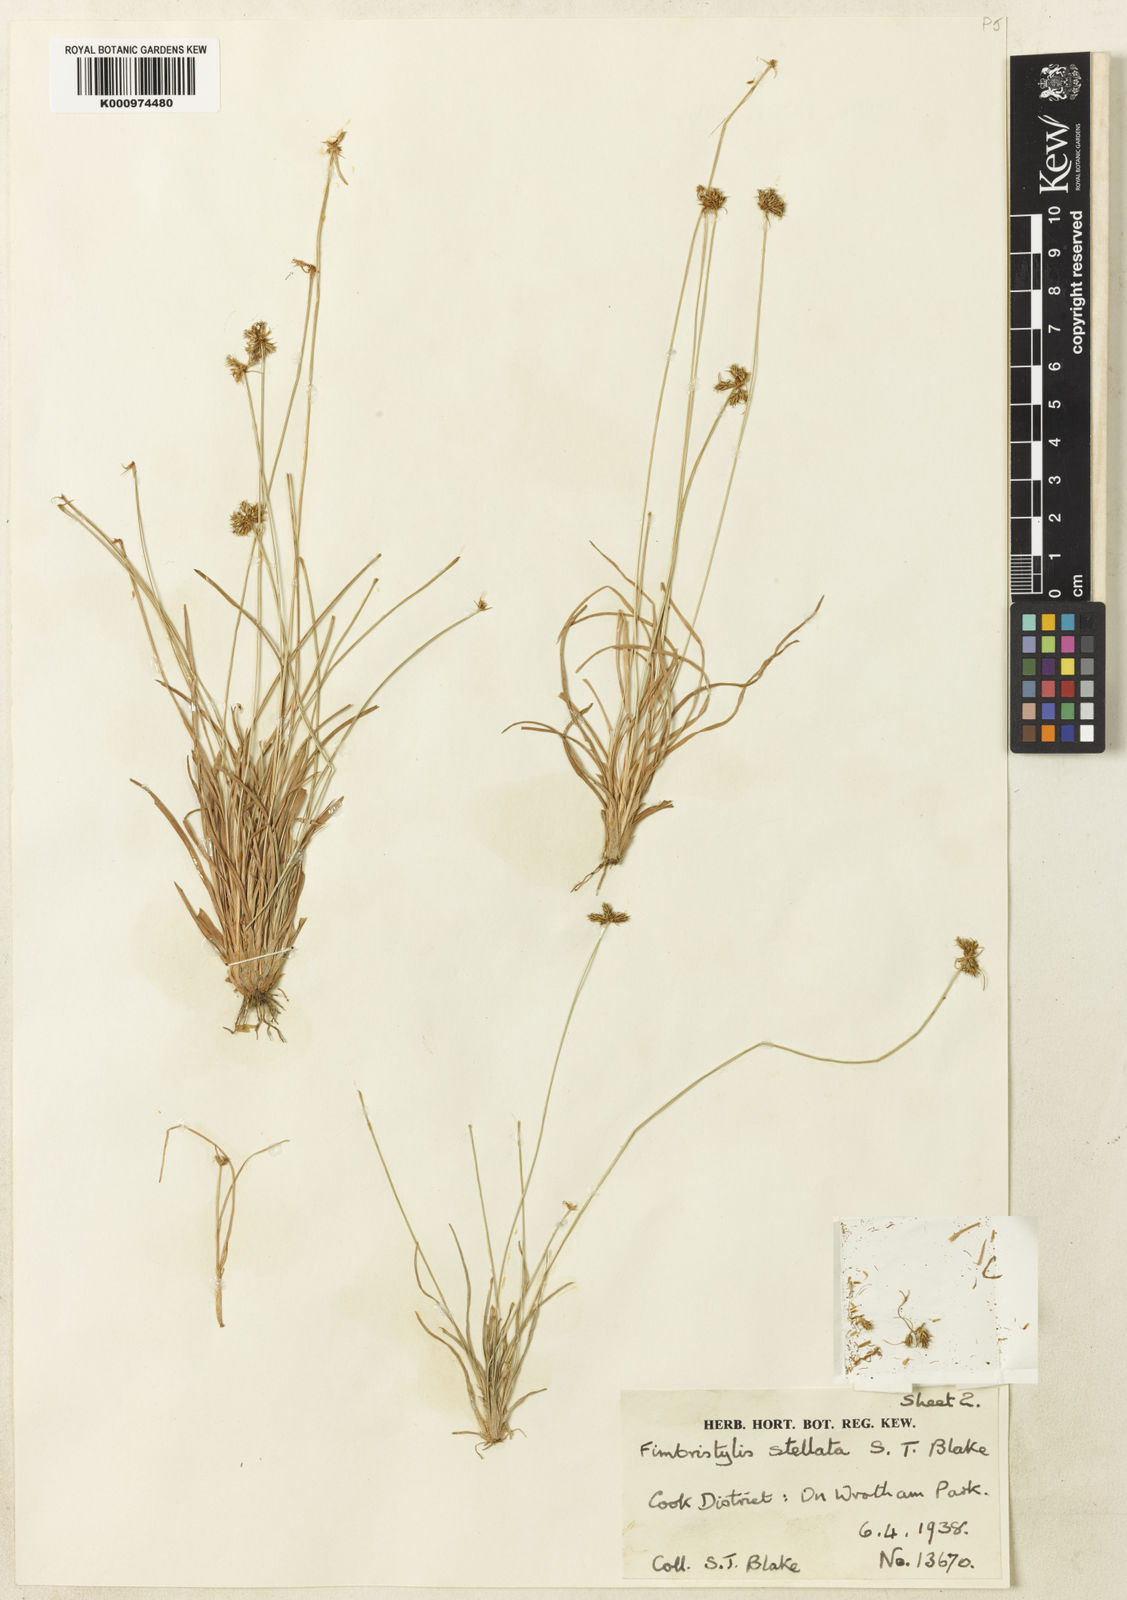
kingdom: Plantae
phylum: Tracheophyta
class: Liliopsida
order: Poales
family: Cyperaceae
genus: Fimbristylis
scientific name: Fimbristylis schultzii
